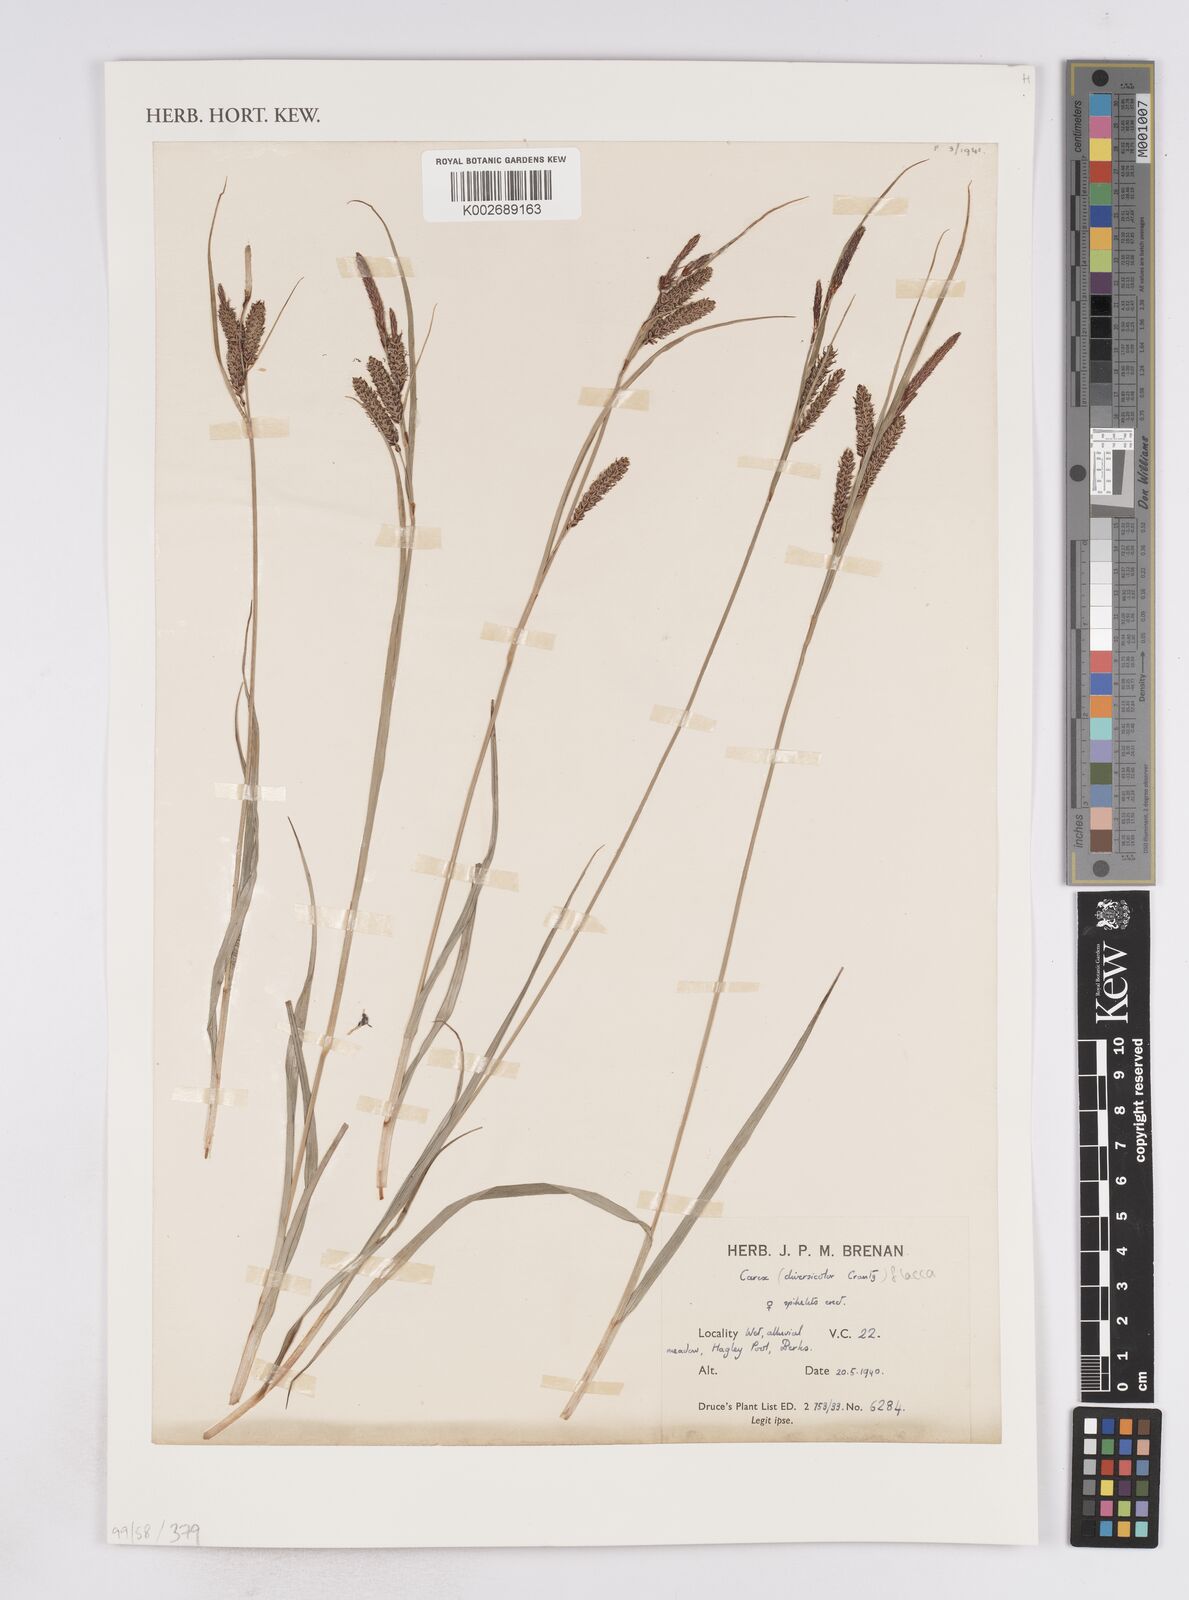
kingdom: Plantae
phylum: Tracheophyta
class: Liliopsida
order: Poales
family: Cyperaceae
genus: Carex
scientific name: Carex flacca
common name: Glaucous sedge
